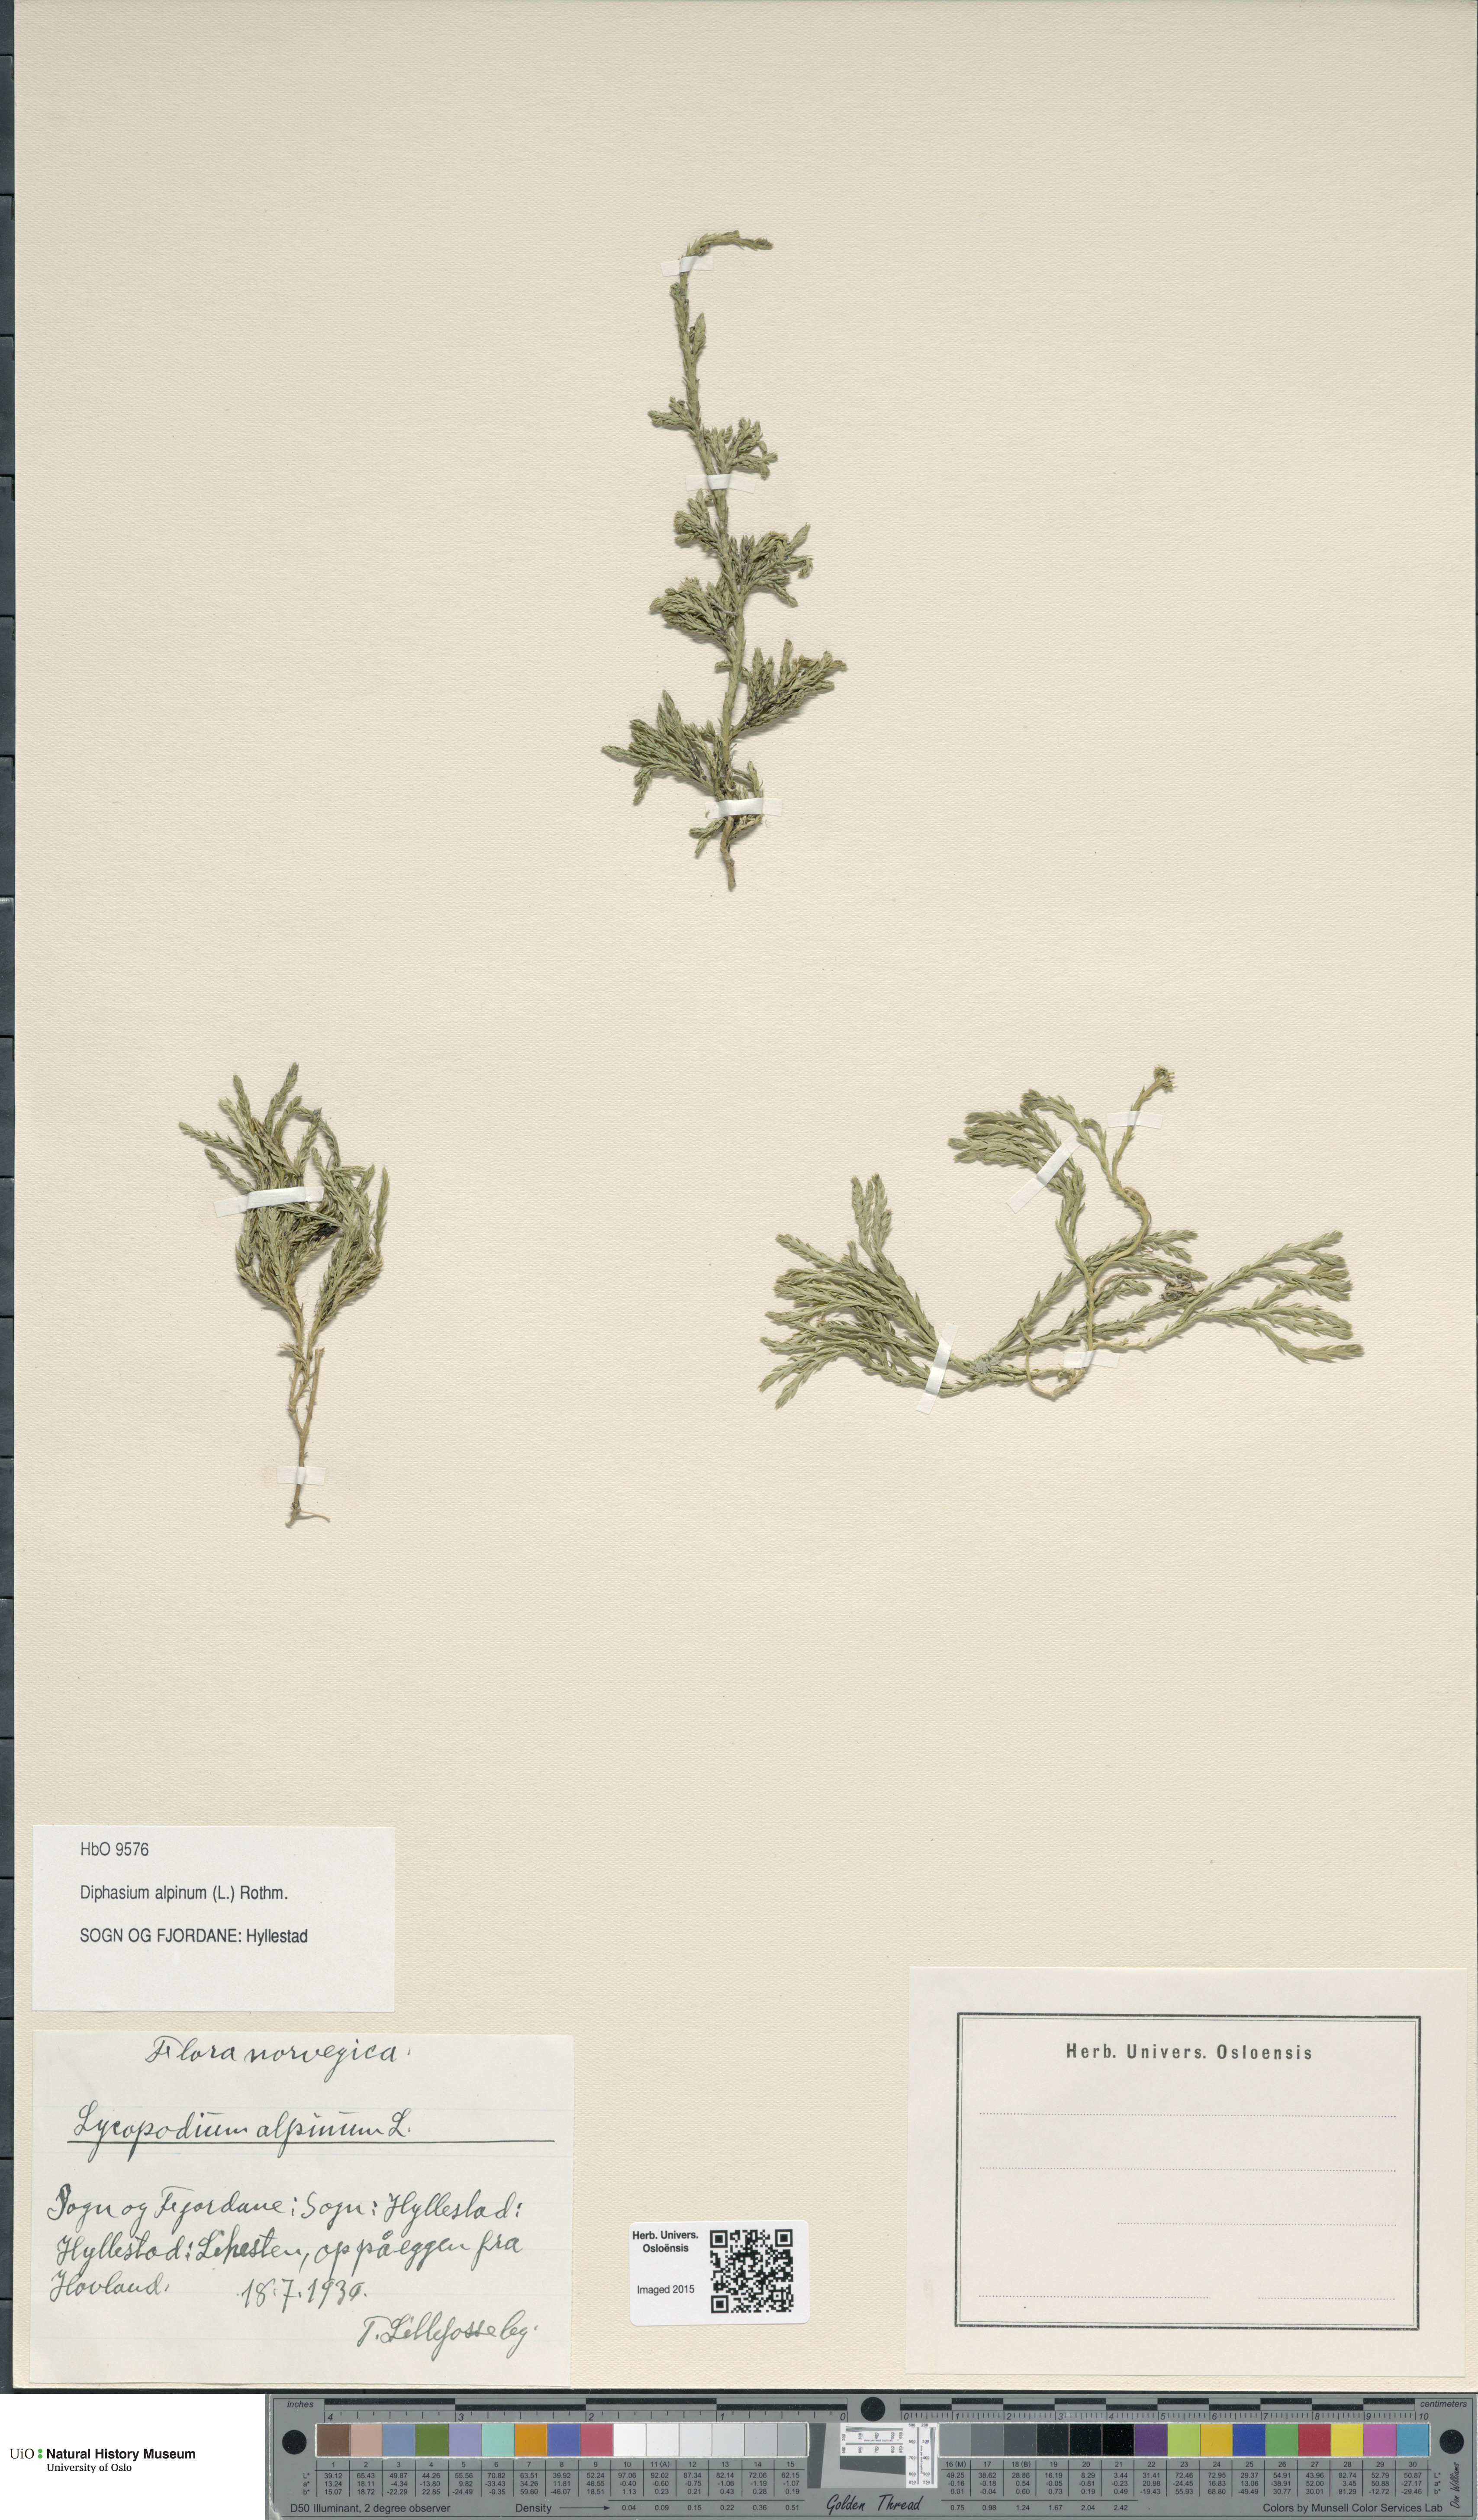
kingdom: Plantae
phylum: Tracheophyta
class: Lycopodiopsida
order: Lycopodiales
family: Lycopodiaceae
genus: Diphasiastrum
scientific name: Diphasiastrum alpinum
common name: Alpine clubmoss
